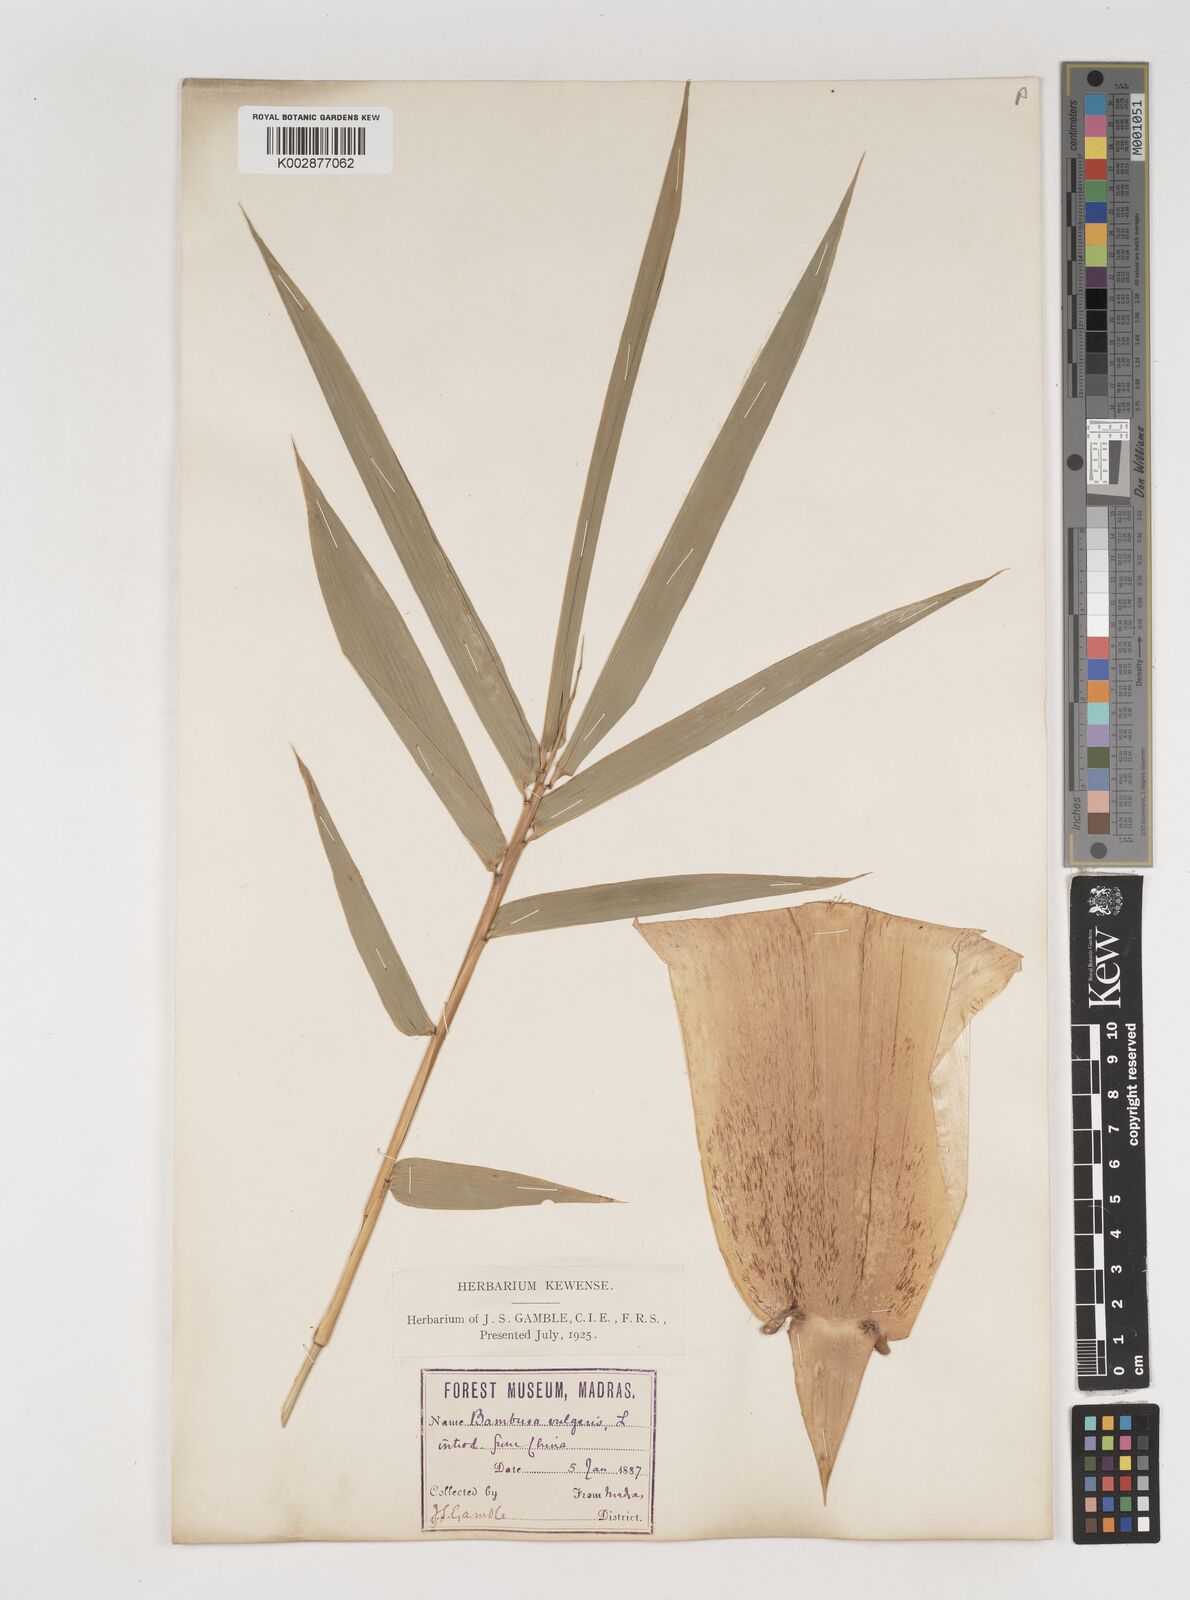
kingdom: Plantae
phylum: Tracheophyta
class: Liliopsida
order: Poales
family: Poaceae
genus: Bambusa
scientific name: Bambusa vulgaris
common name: Common bamboo
